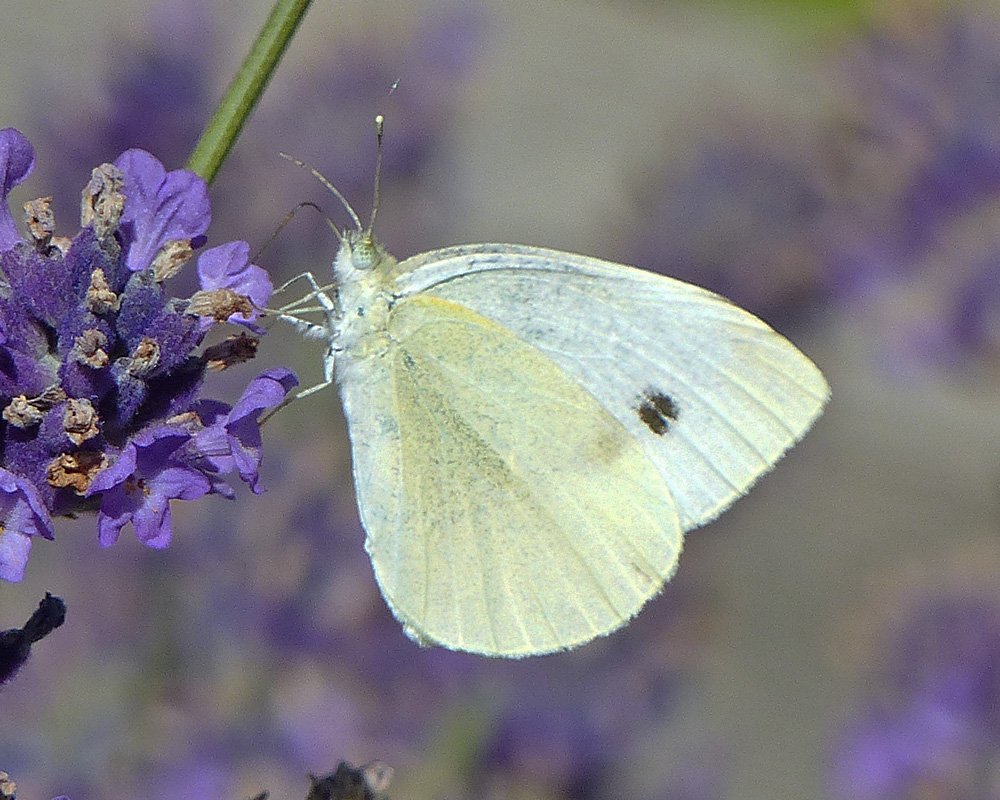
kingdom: Animalia
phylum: Arthropoda
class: Insecta
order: Lepidoptera
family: Pieridae
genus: Pieris
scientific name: Pieris rapae
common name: Cabbage White
